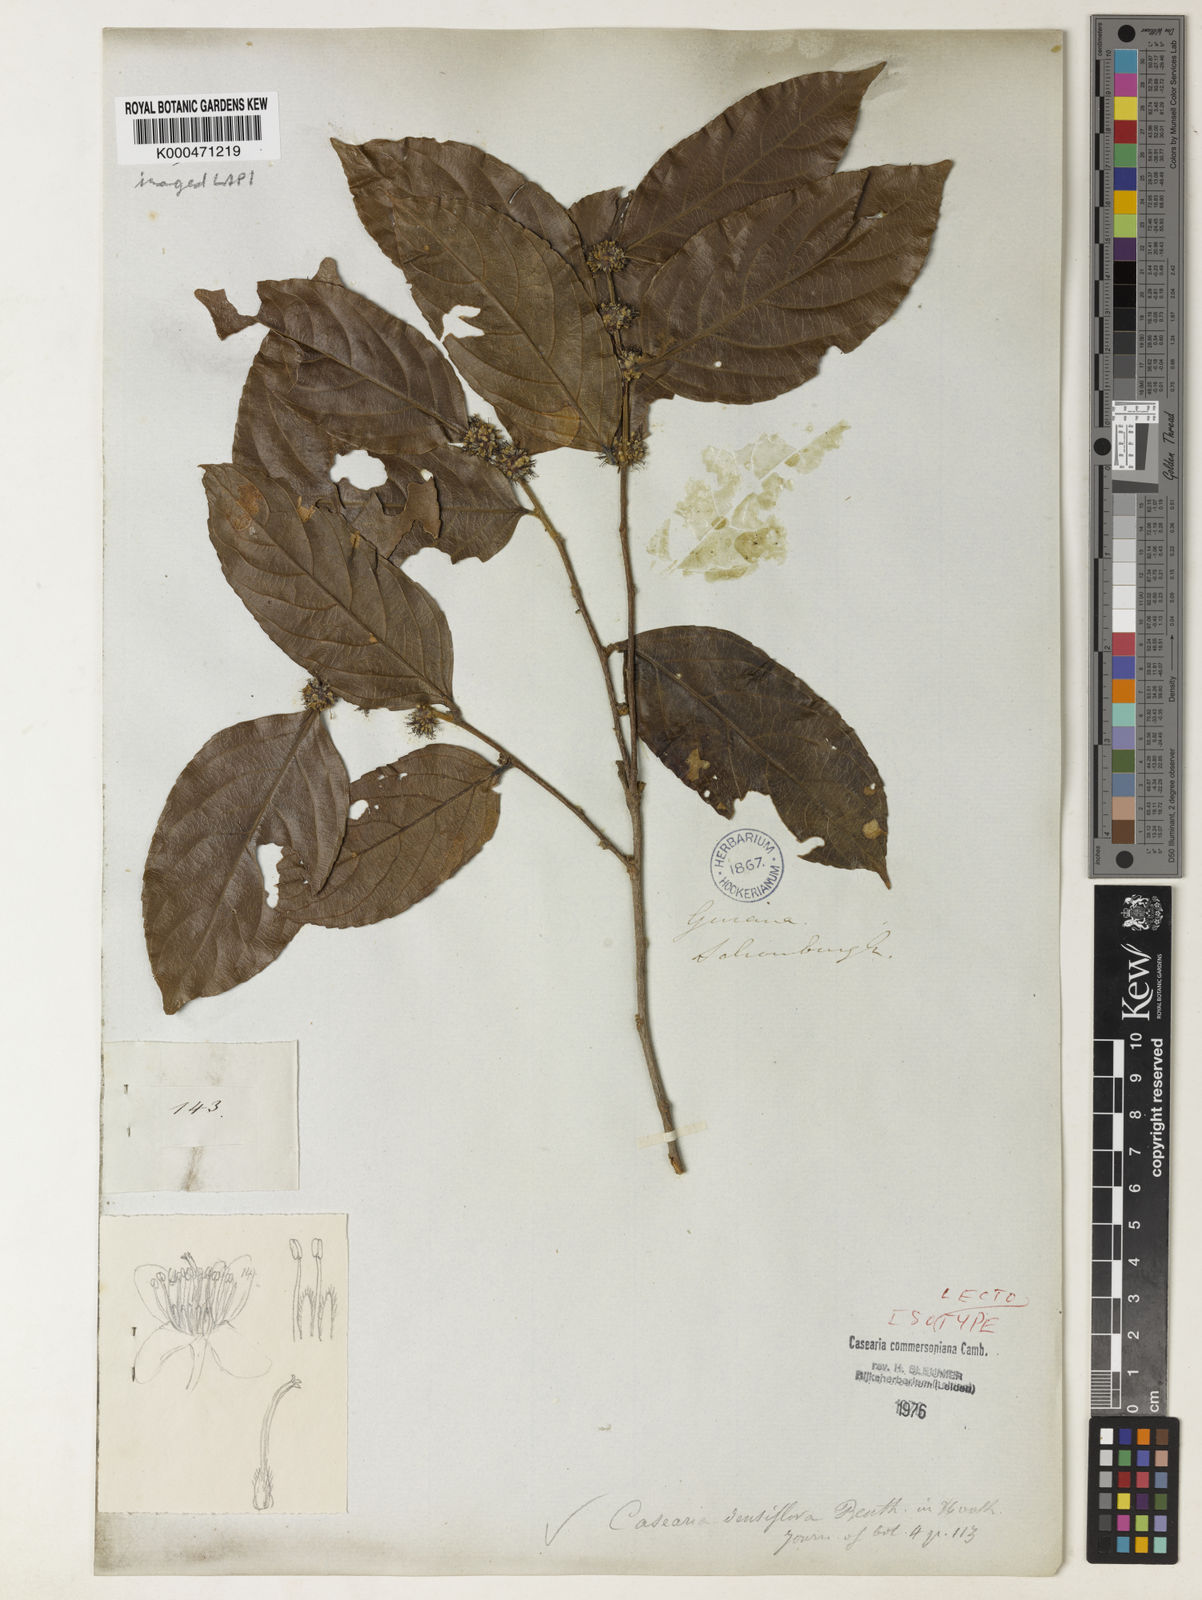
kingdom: Plantae
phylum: Tracheophyta
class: Magnoliopsida
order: Malpighiales
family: Salicaceae
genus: Piparea
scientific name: Piparea dentata
